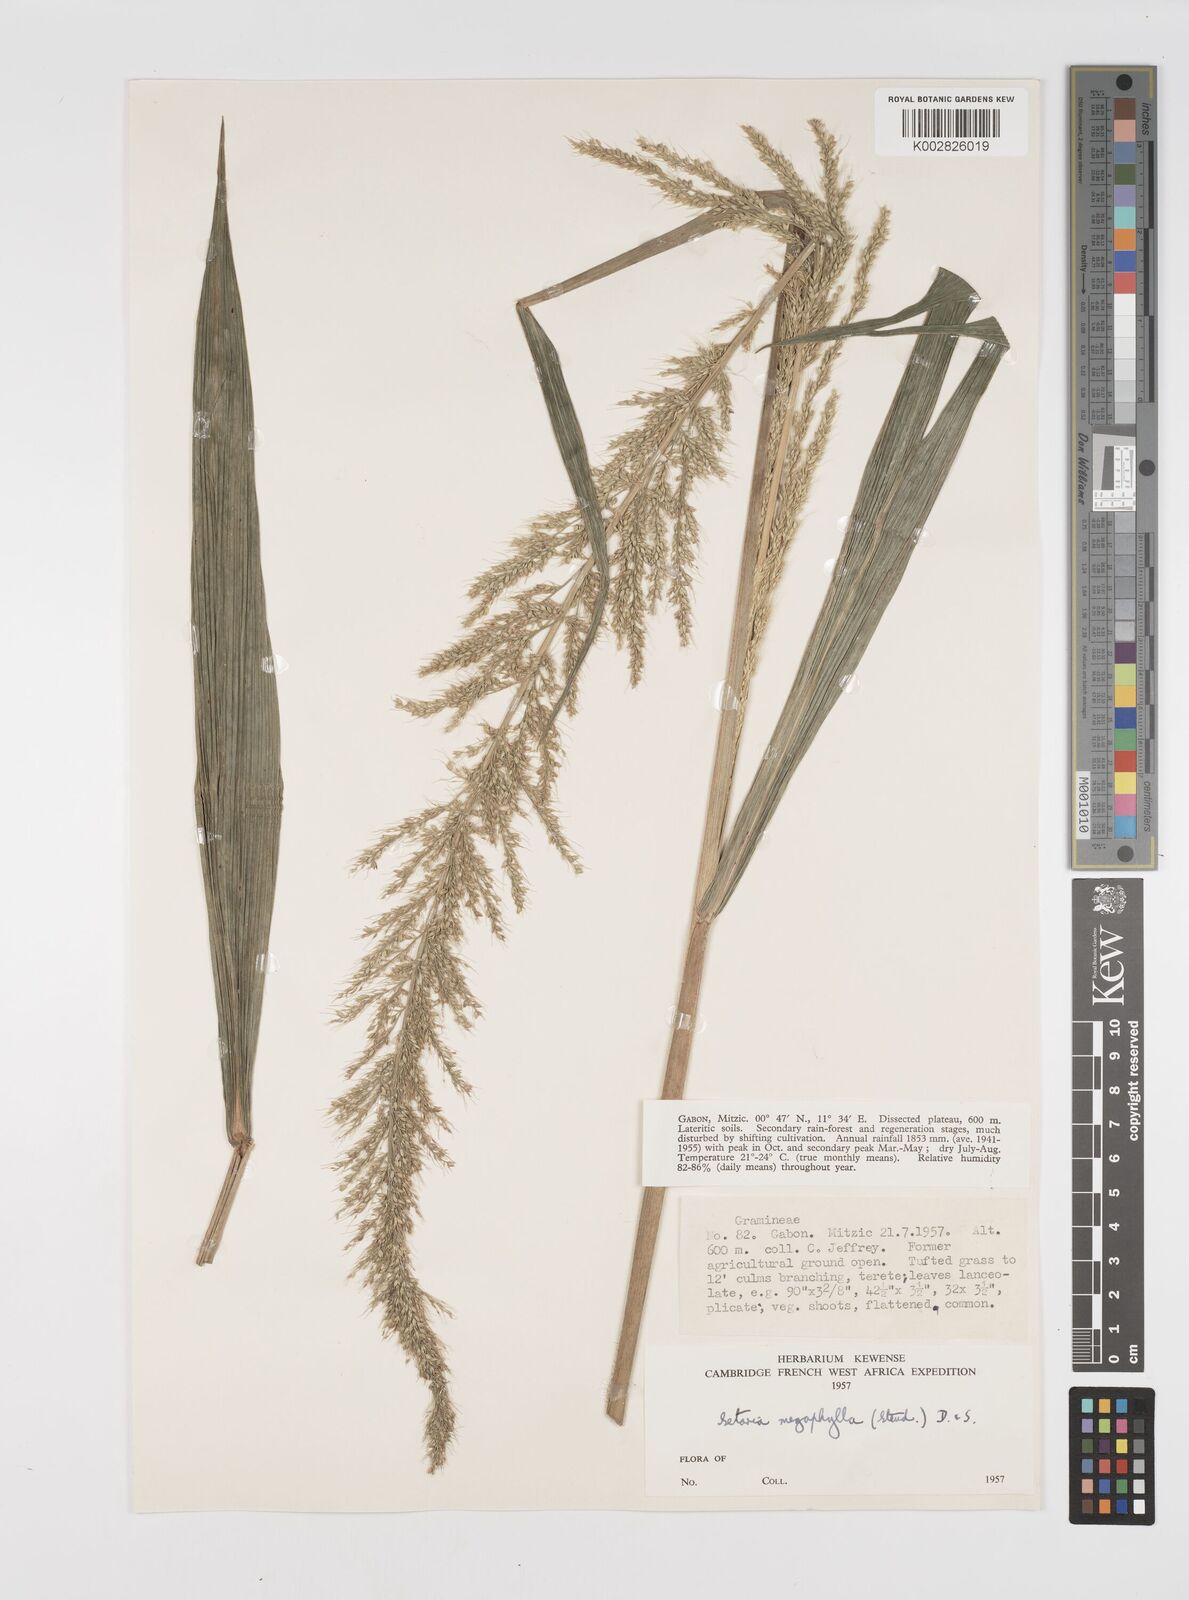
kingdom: Plantae
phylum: Tracheophyta
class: Liliopsida
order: Poales
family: Poaceae
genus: Setaria
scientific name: Setaria megaphylla
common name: Bigleaf bristlegrass
